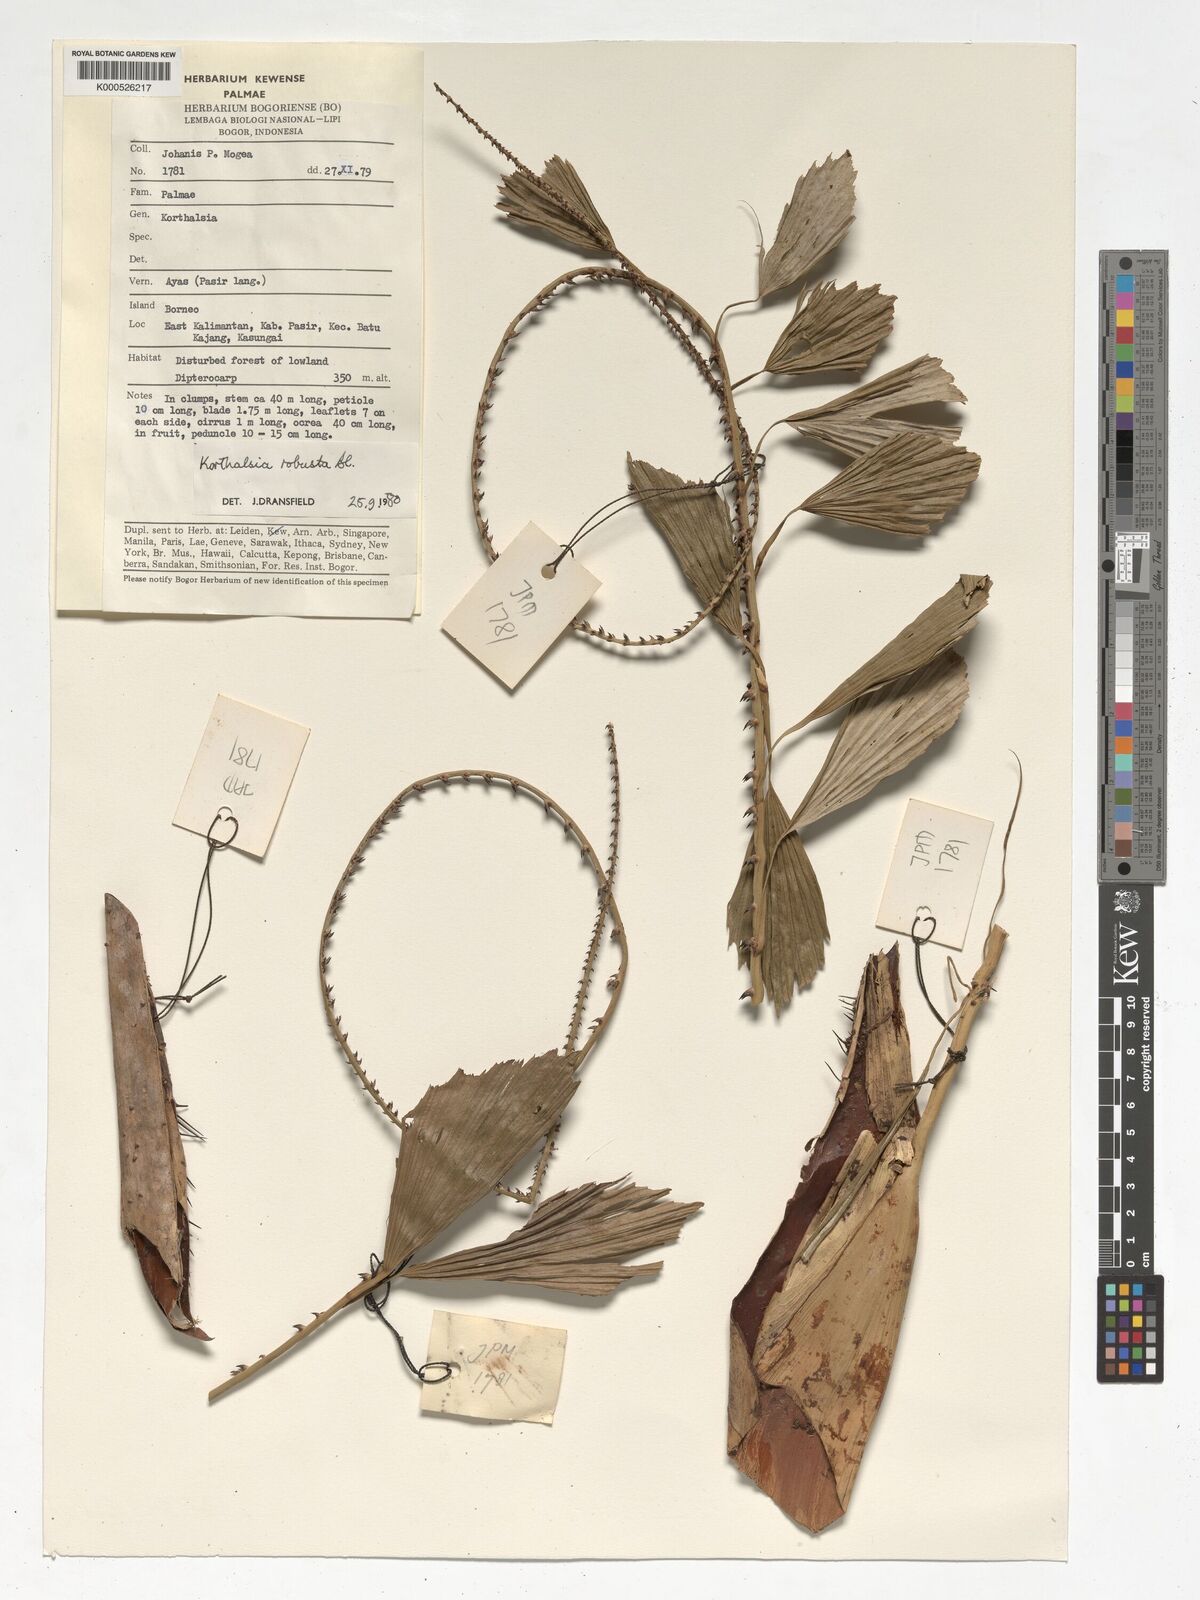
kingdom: Plantae
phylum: Tracheophyta
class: Liliopsida
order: Arecales
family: Arecaceae
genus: Korthalsia
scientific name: Korthalsia robusta
